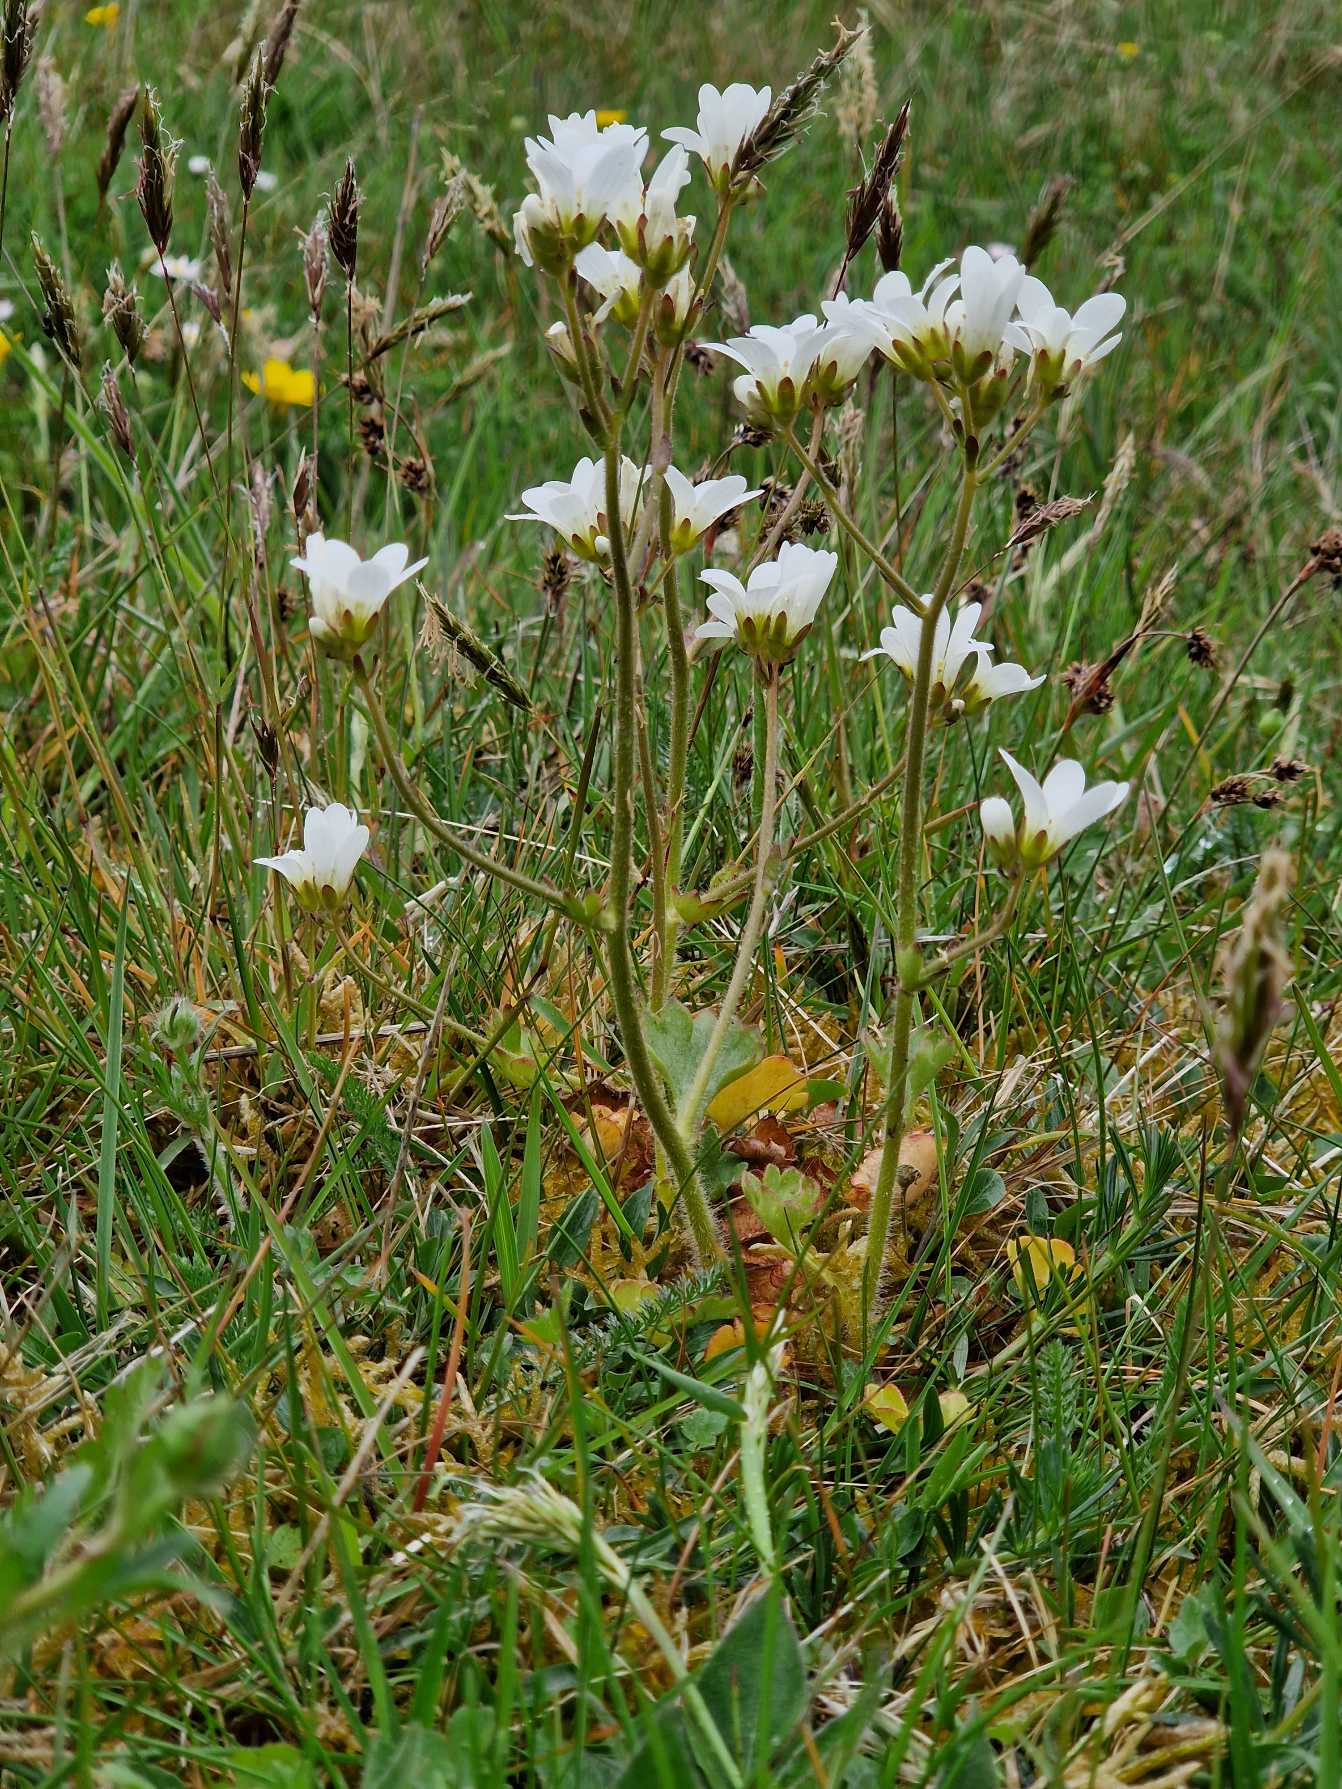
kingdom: Plantae
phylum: Tracheophyta
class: Magnoliopsida
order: Saxifragales
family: Saxifragaceae
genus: Saxifraga
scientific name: Saxifraga granulata
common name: Kornet stenbræk
